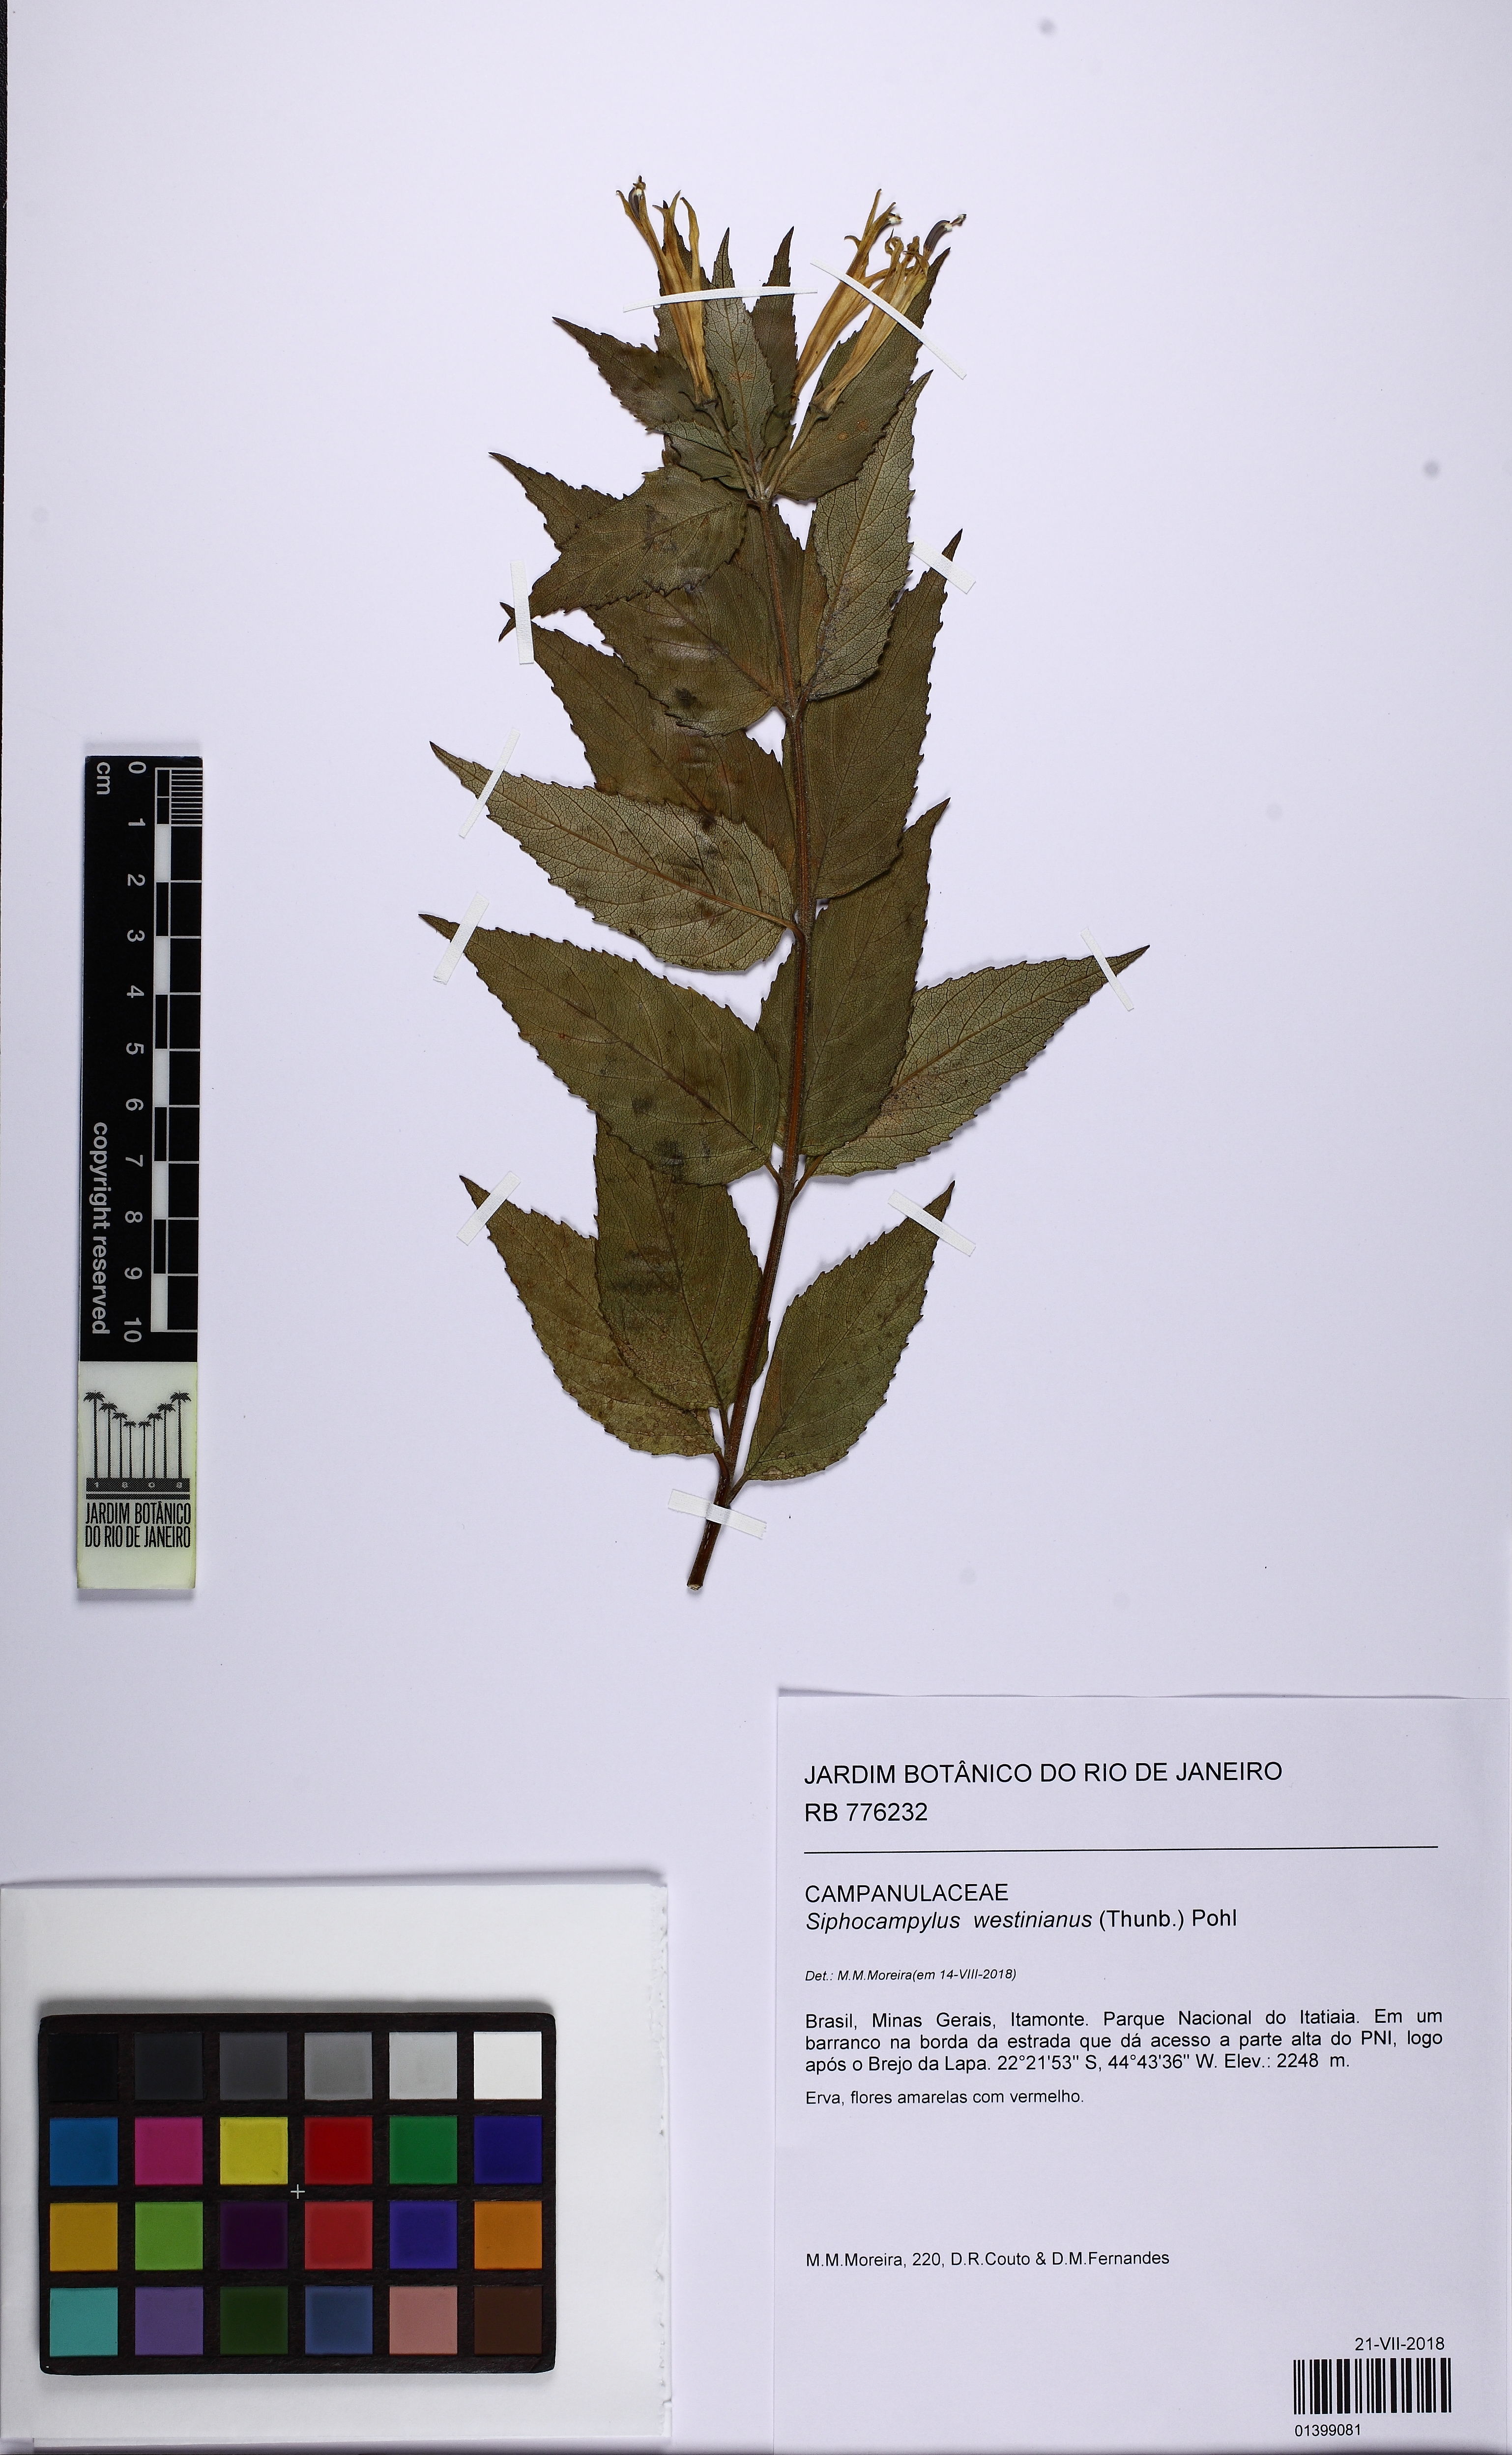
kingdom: Plantae
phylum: Tracheophyta
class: Magnoliopsida
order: Asterales
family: Campanulaceae
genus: Siphocampylus
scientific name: Siphocampylus westinianus
